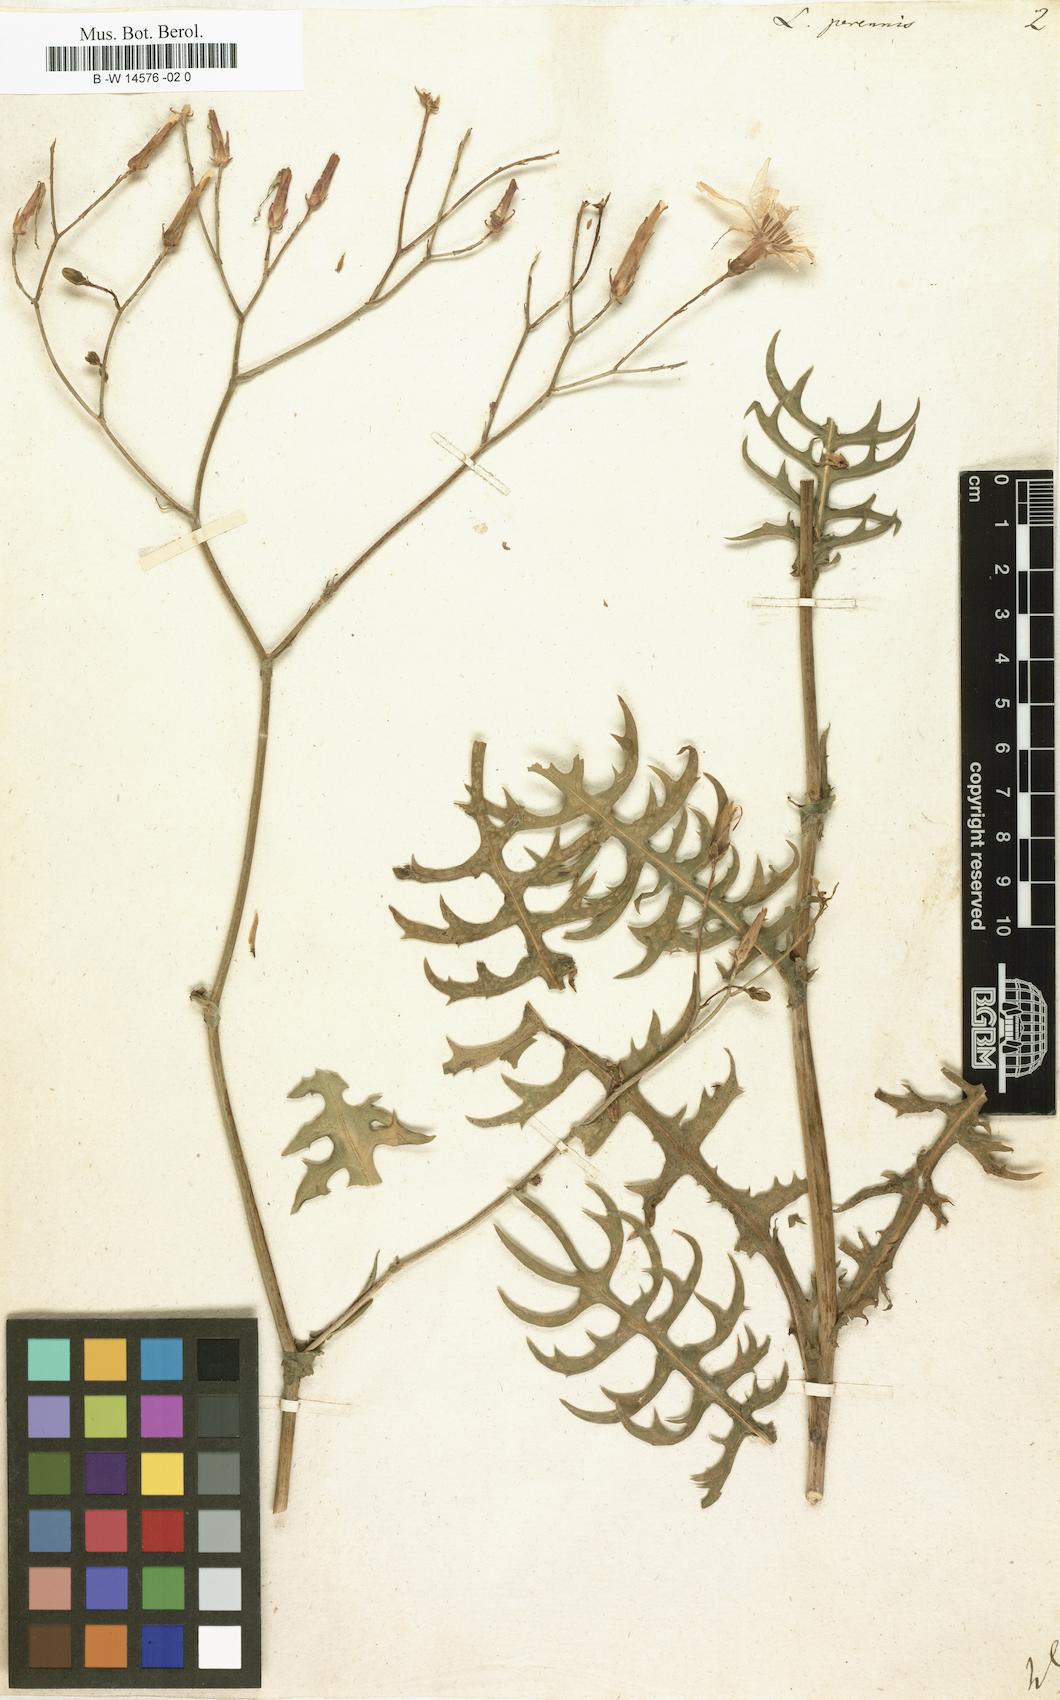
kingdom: Plantae
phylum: Tracheophyta
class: Magnoliopsida
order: Asterales
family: Asteraceae
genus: Lactuca
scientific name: Lactuca perennis
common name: Mountain lettuce
